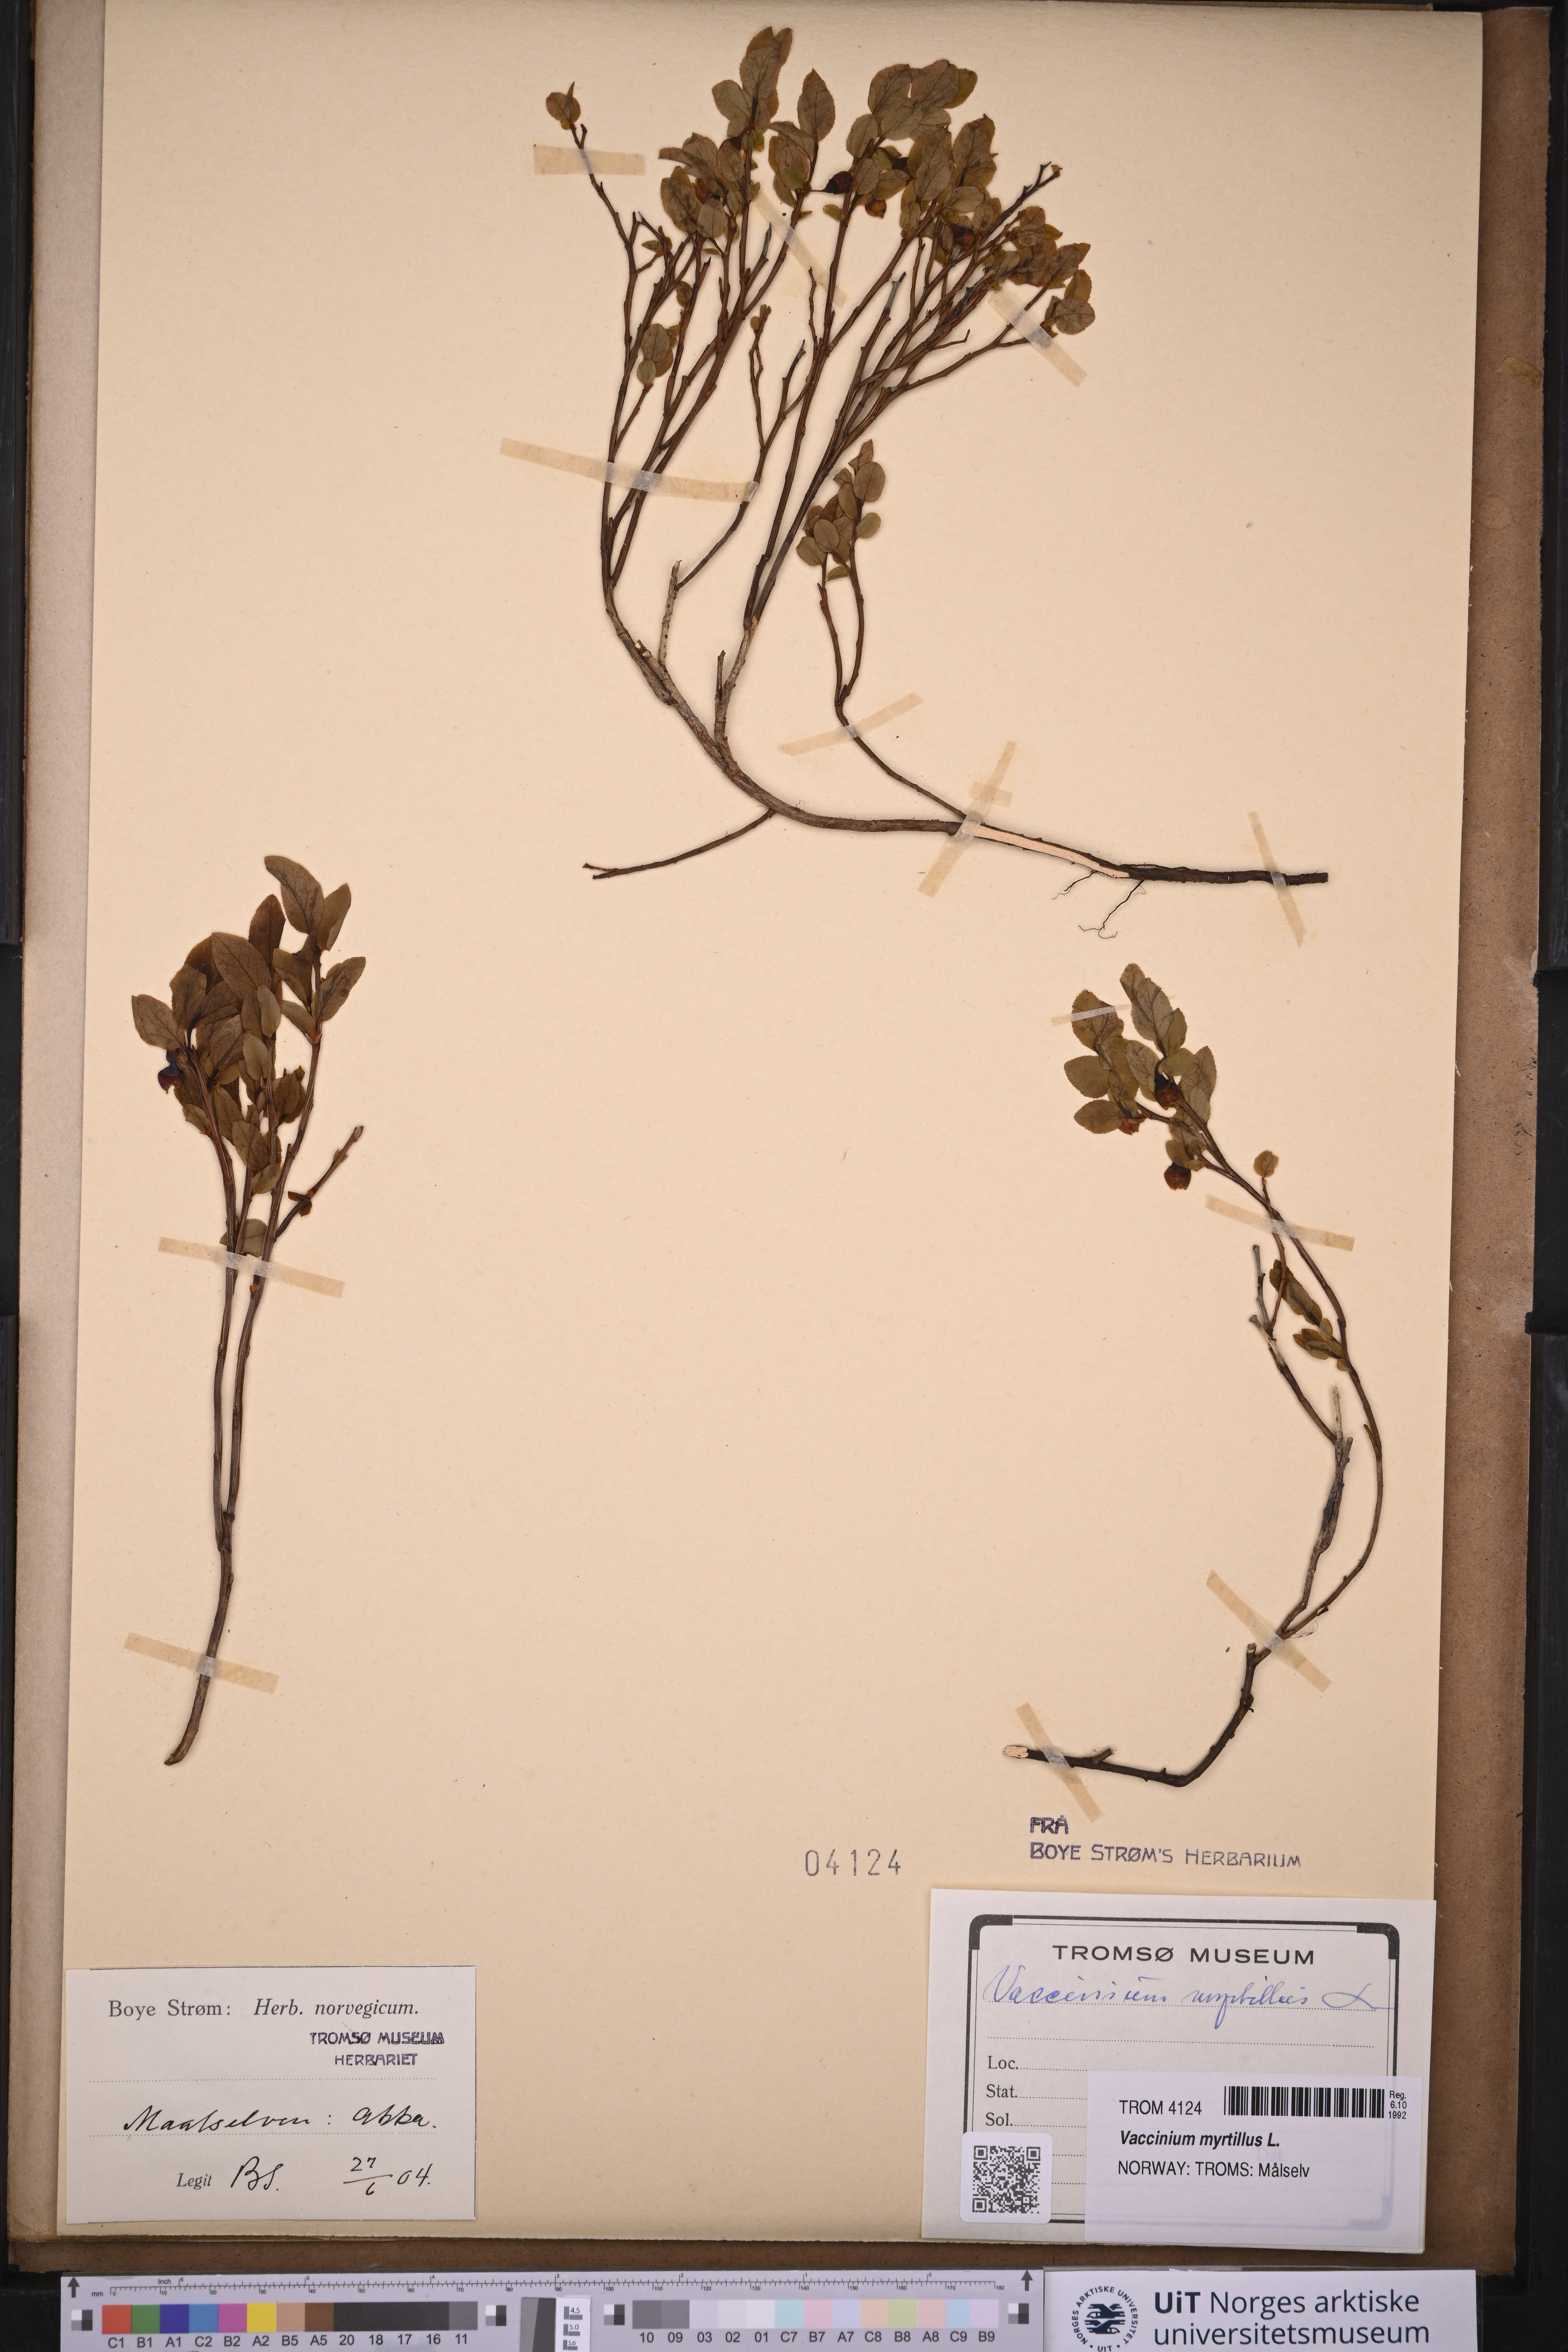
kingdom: Plantae
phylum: Tracheophyta
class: Magnoliopsida
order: Ericales
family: Ericaceae
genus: Vaccinium
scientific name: Vaccinium myrtillus
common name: Bilberry
